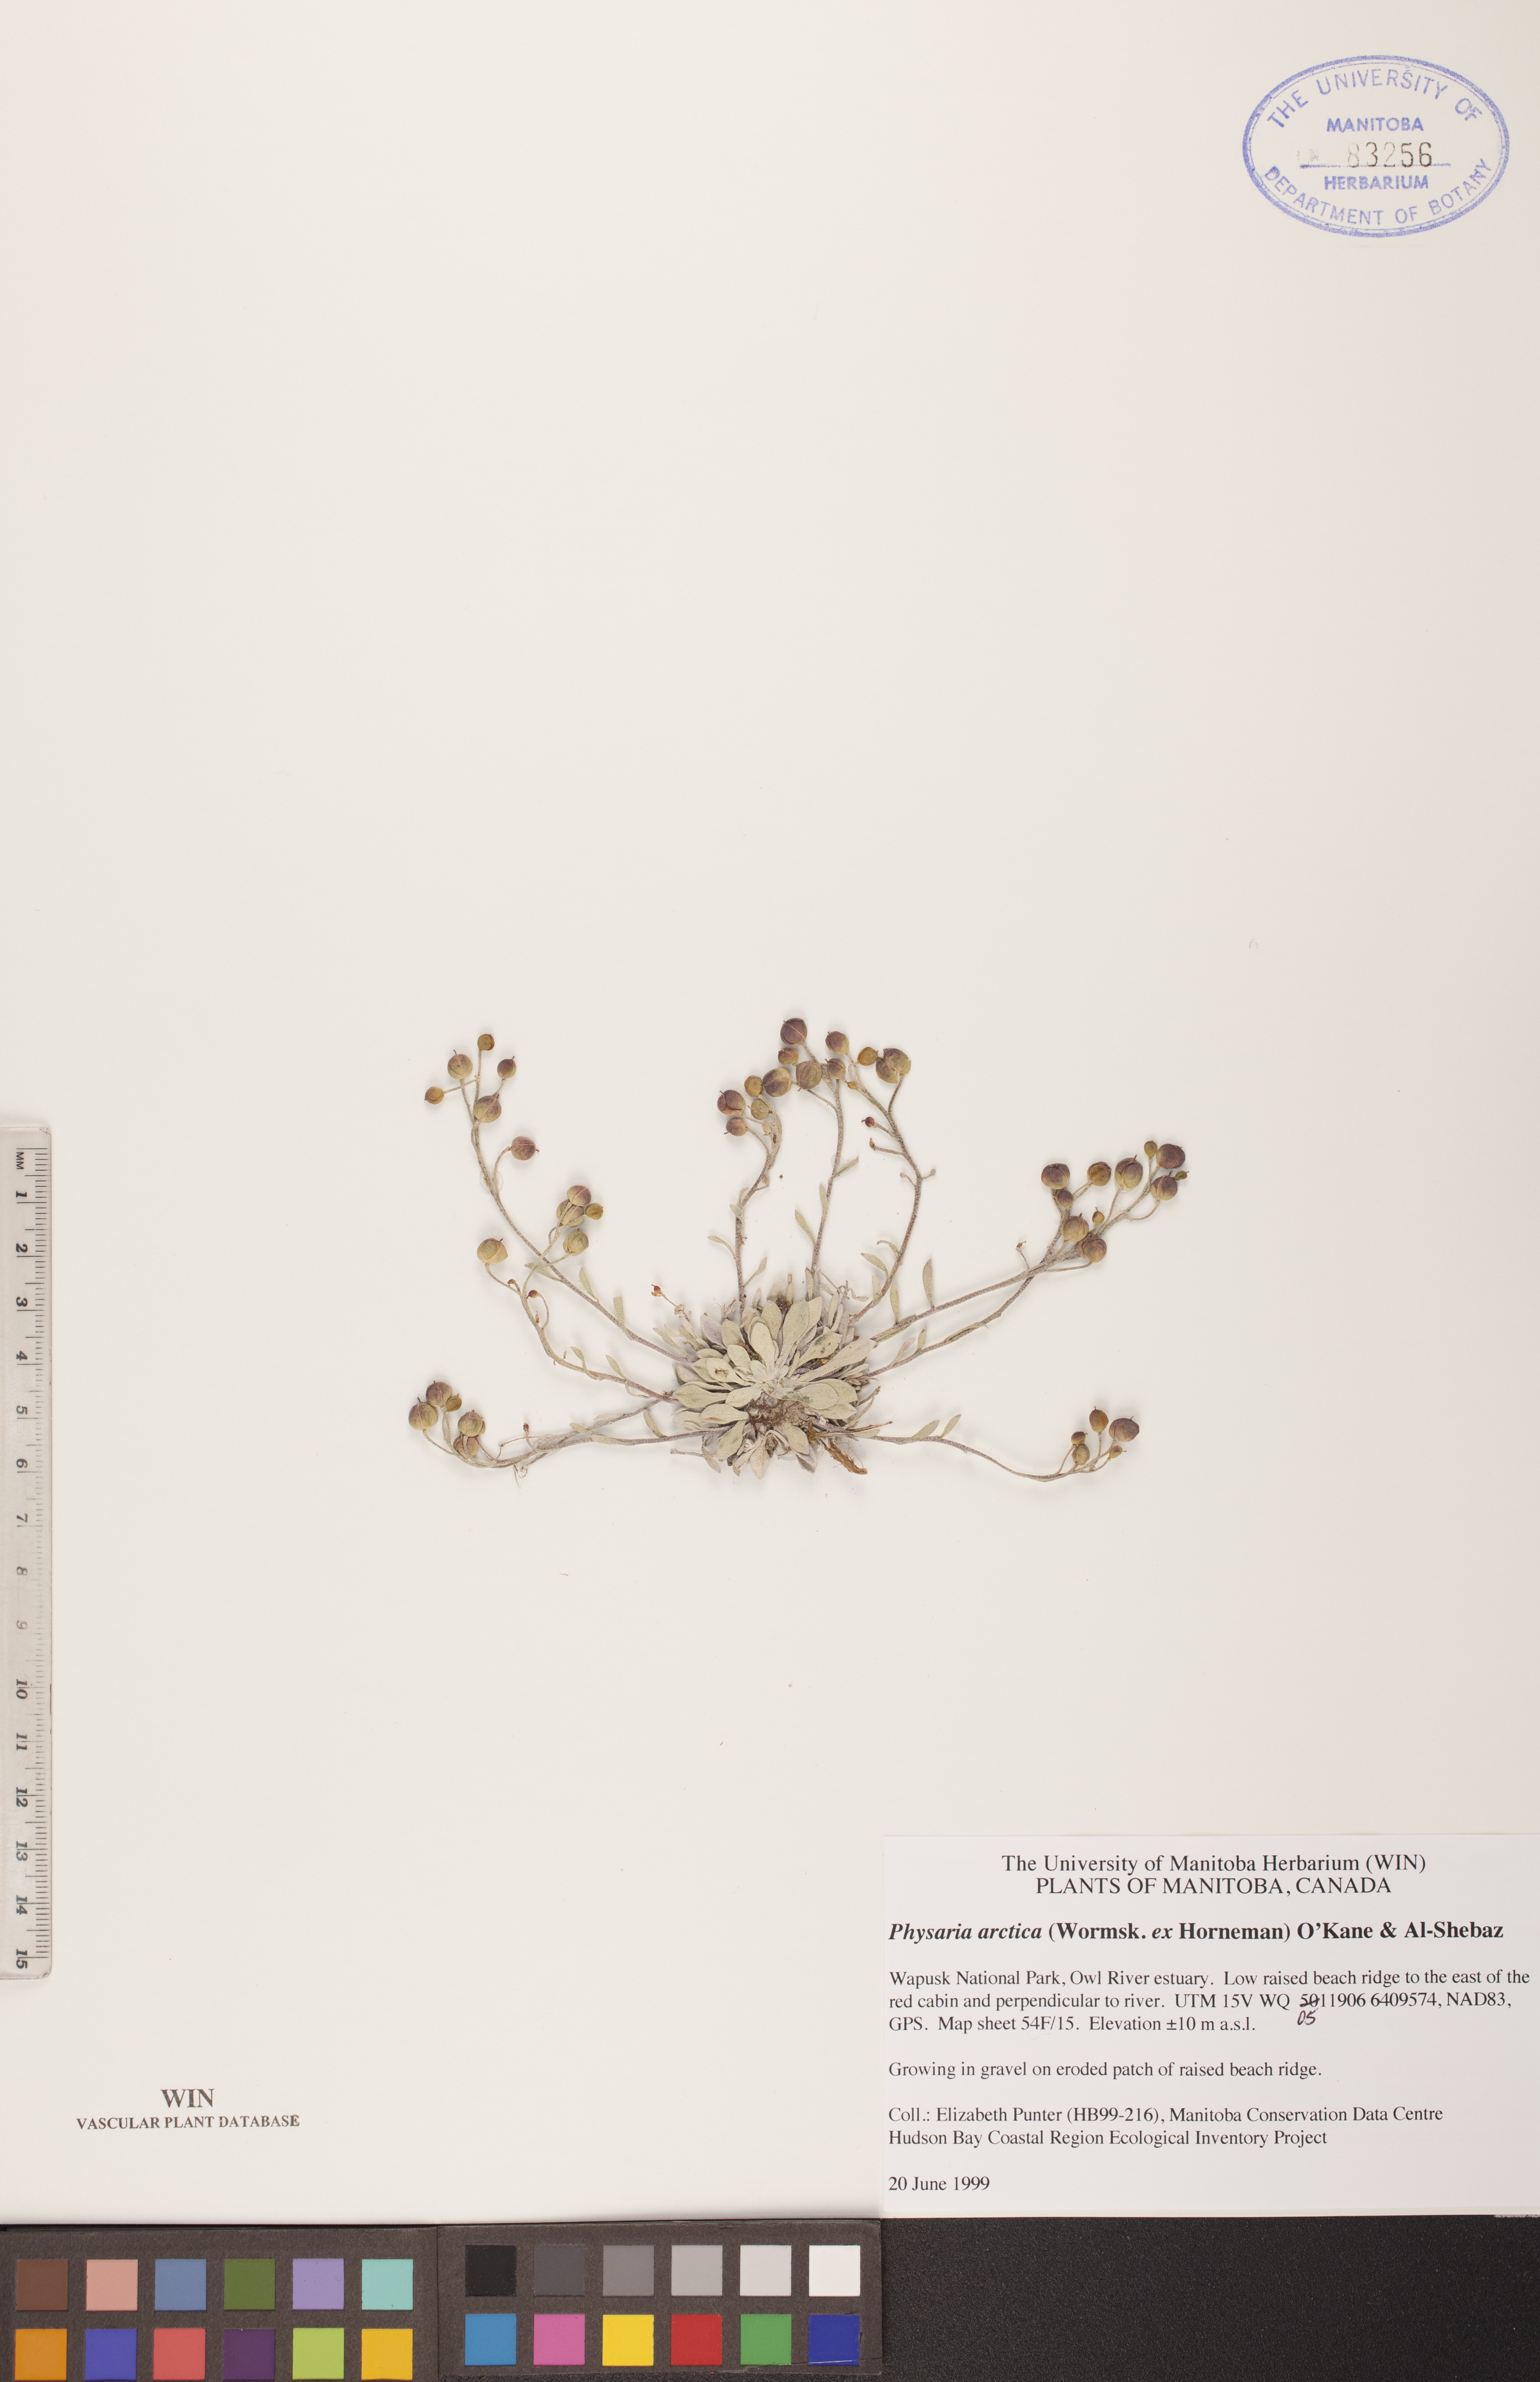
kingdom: Plantae
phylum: Tracheophyta
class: Magnoliopsida
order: Brassicales
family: Brassicaceae
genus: Physaria
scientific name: Physaria arctica
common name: Arctic bladderpod
